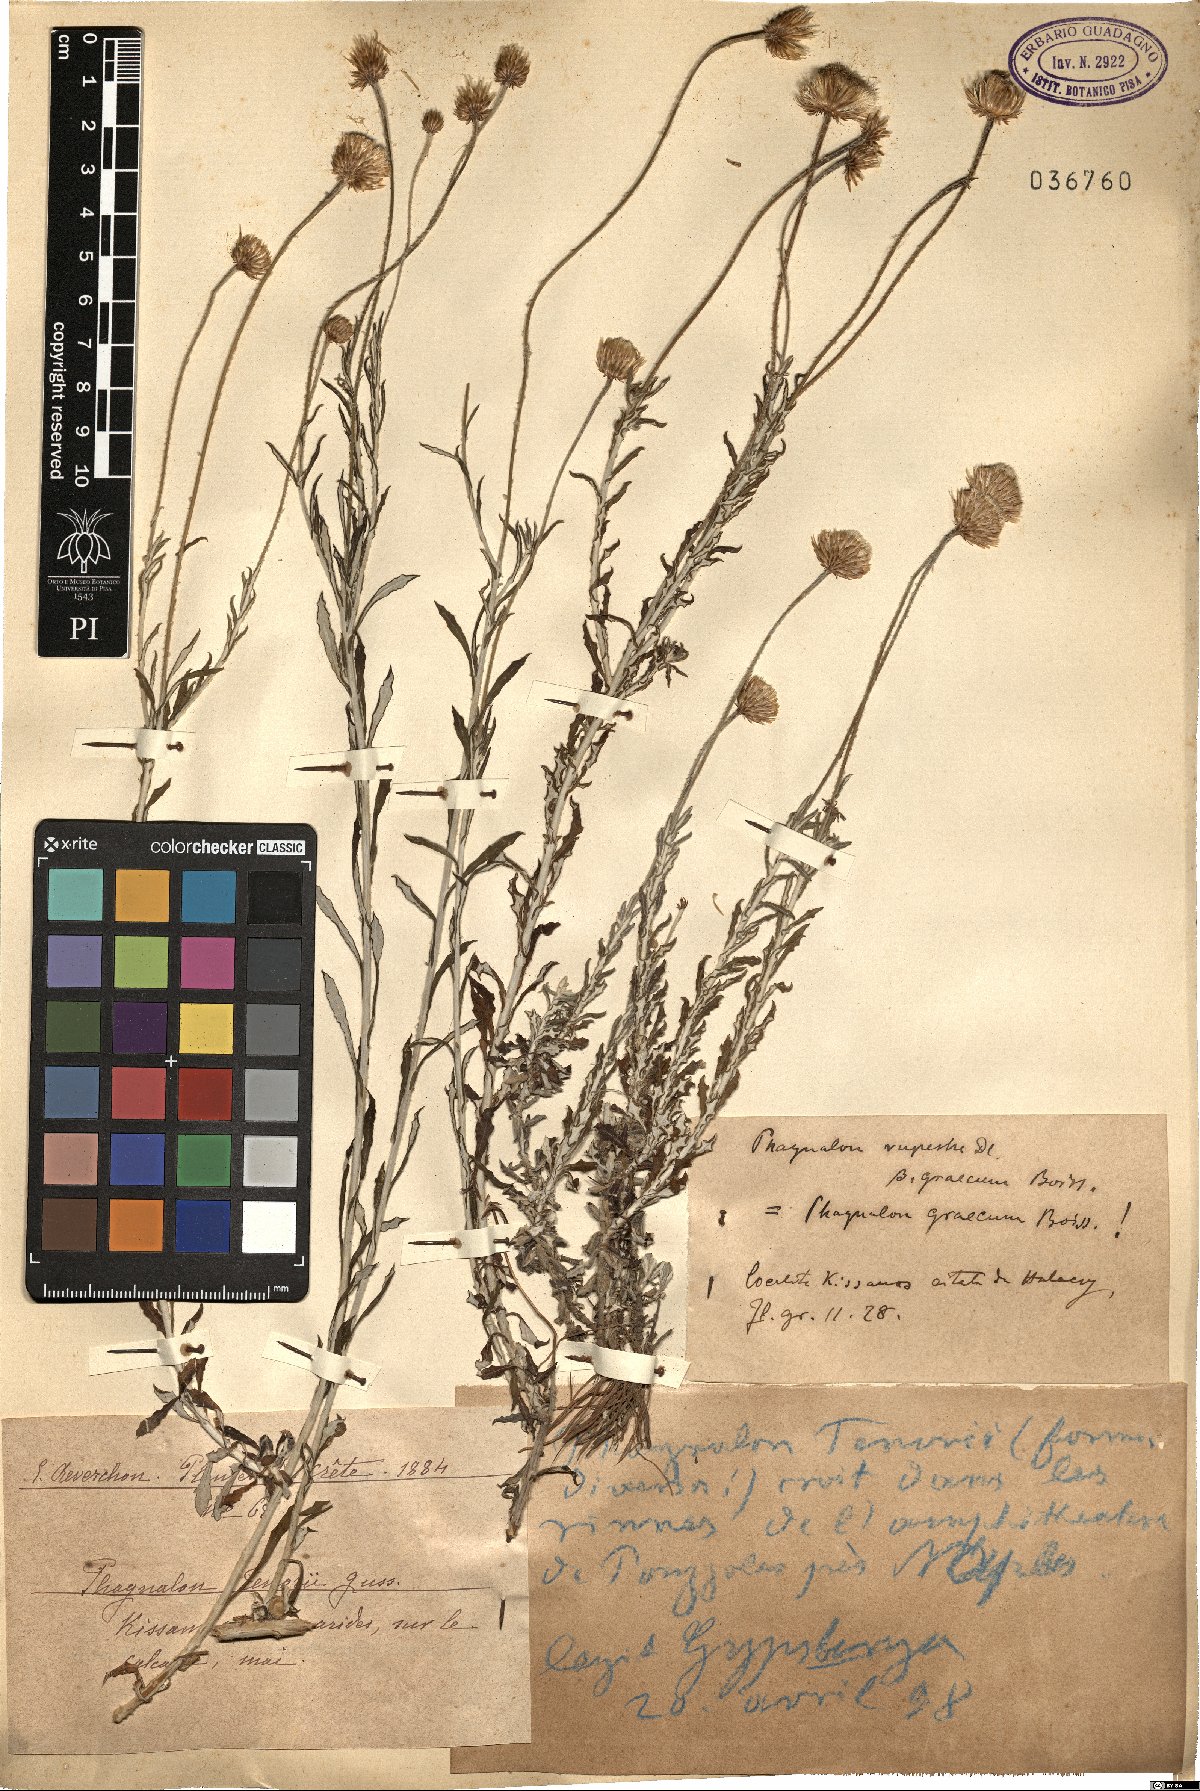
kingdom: Plantae
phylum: Tracheophyta
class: Magnoliopsida
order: Asterales
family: Asteraceae
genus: Phagnalon
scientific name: Phagnalon graecum
